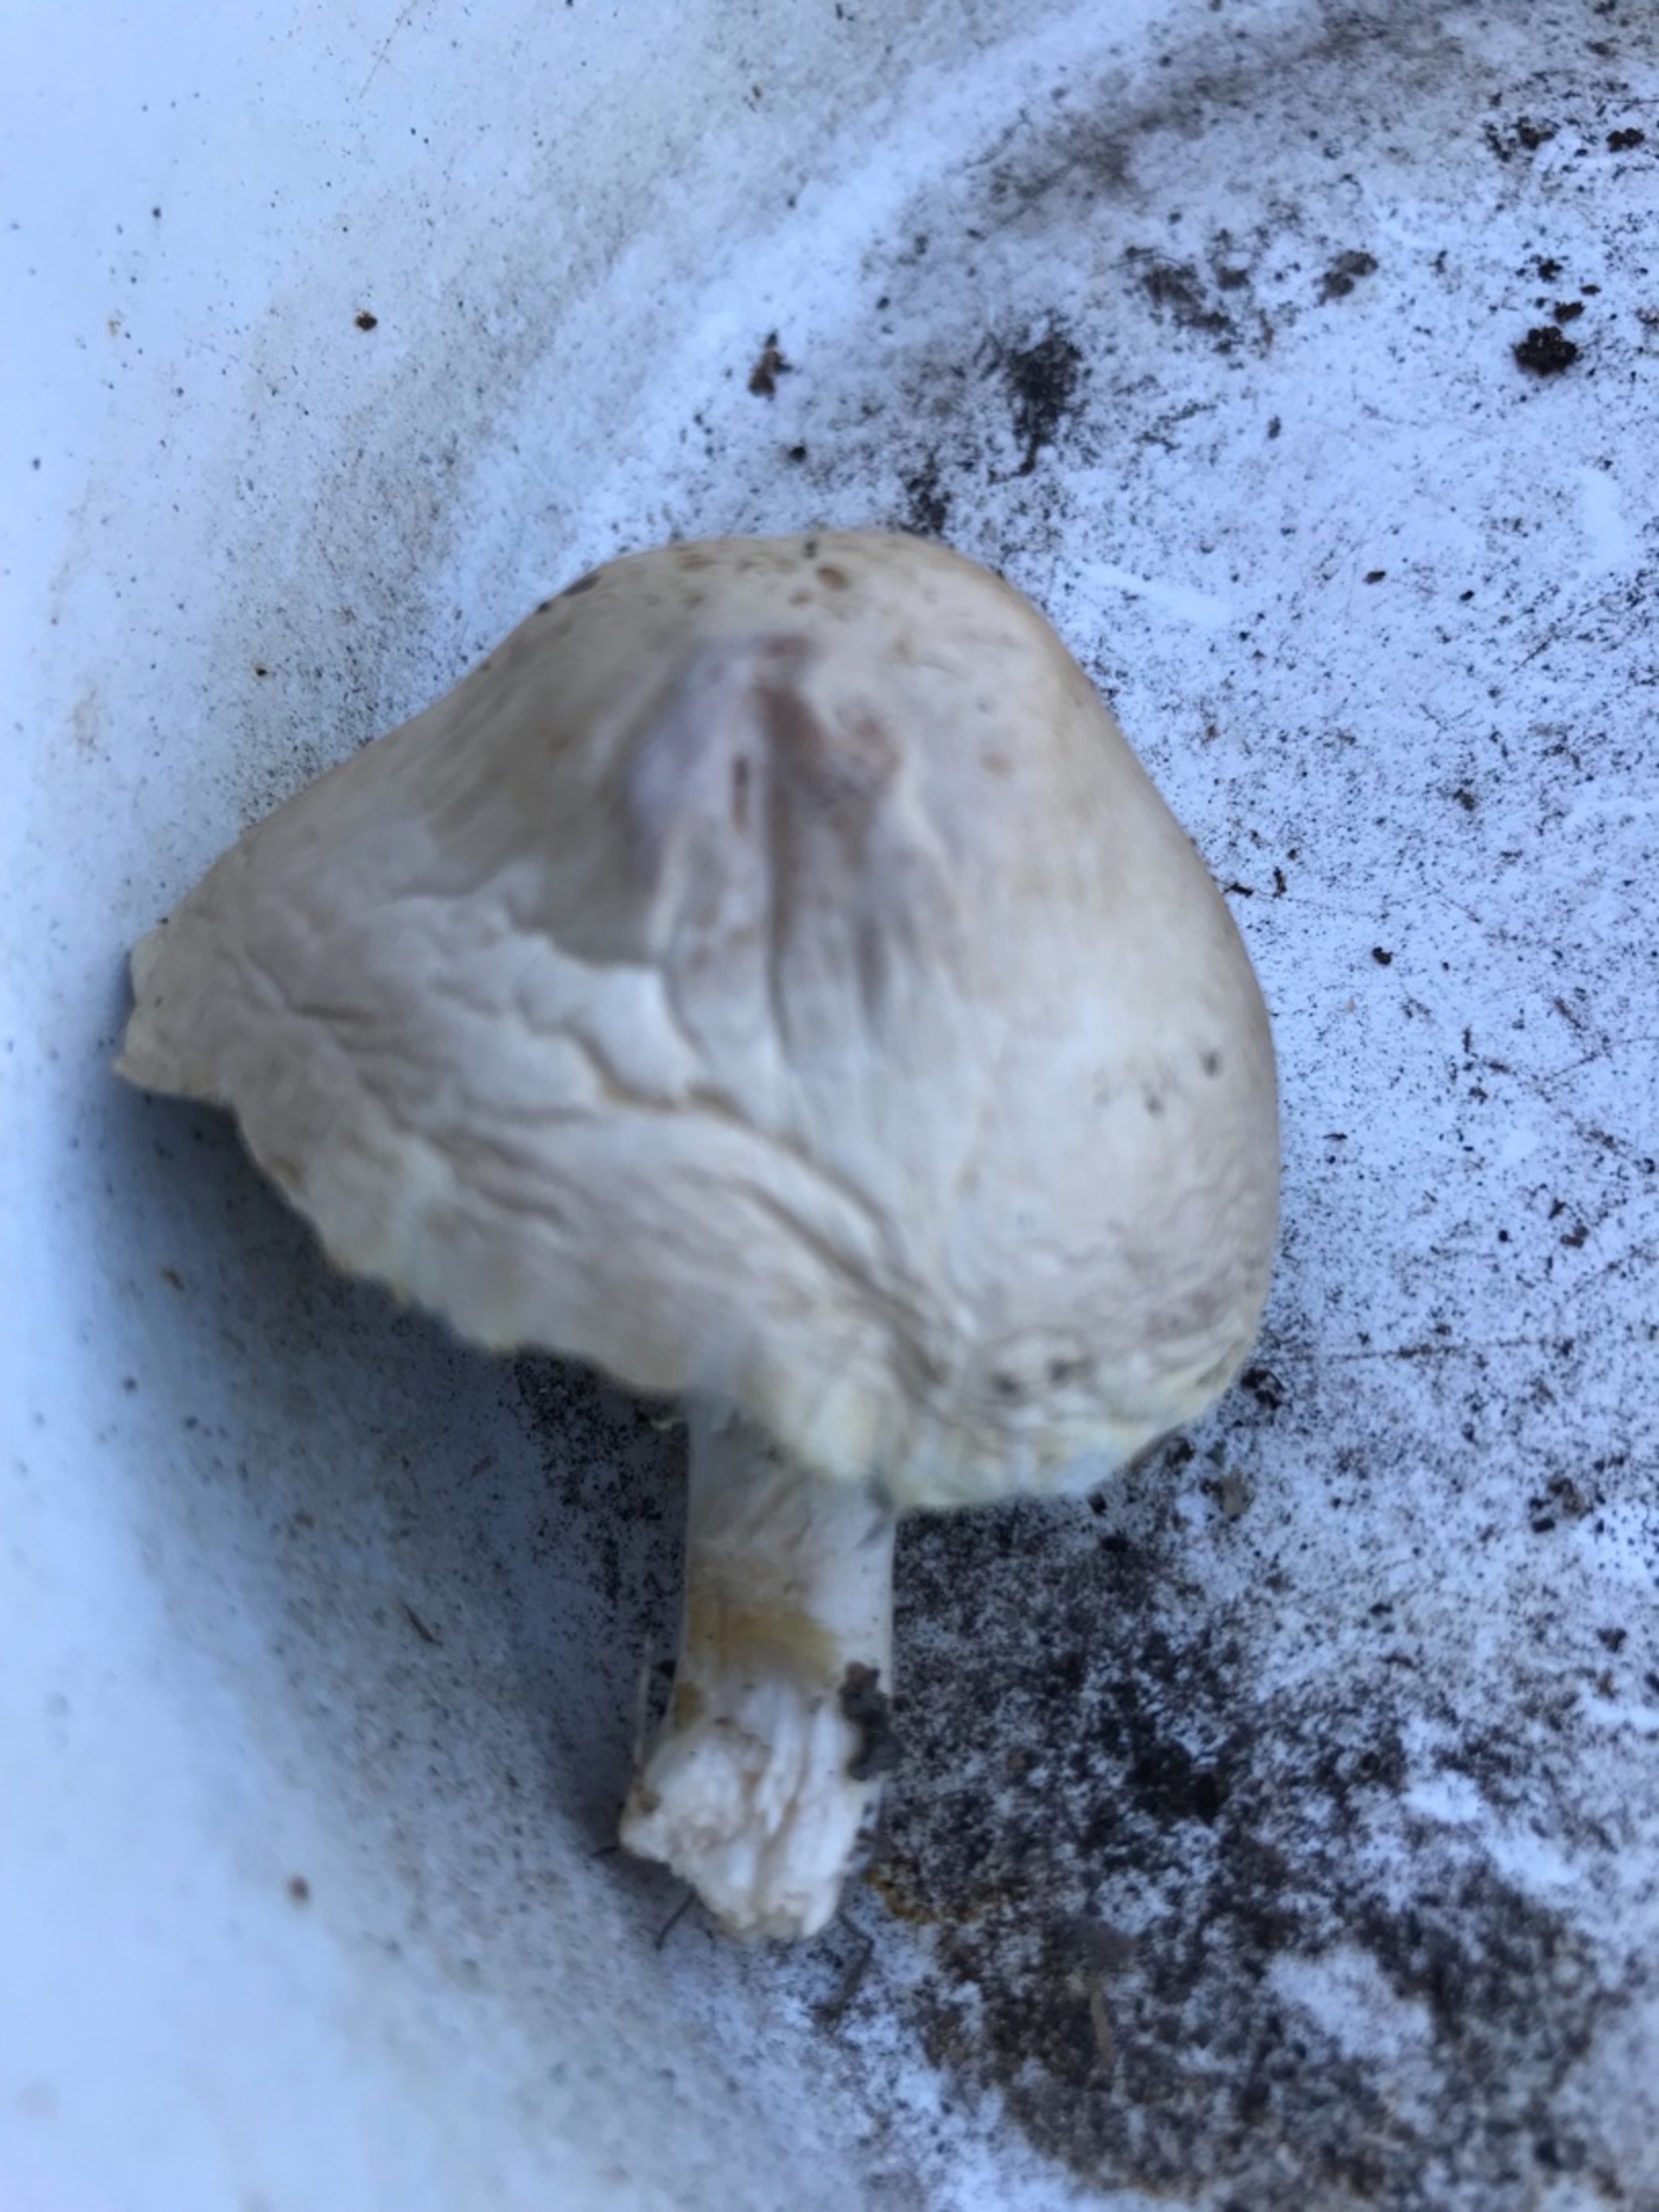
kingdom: Fungi
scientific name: Fungi
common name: Svamperiget
